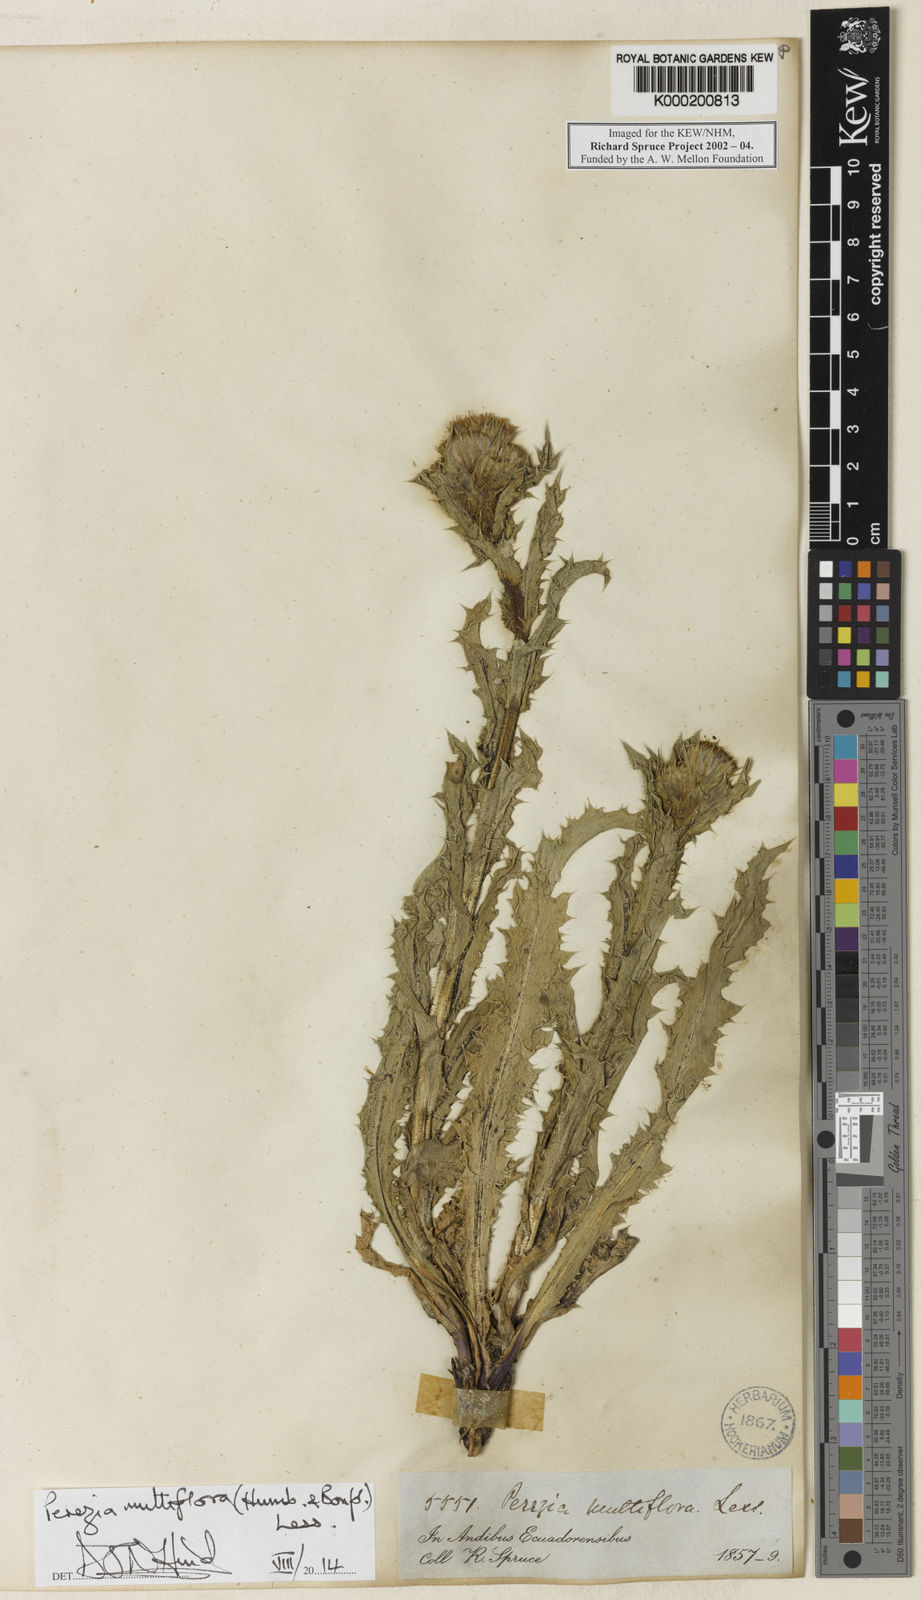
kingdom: Plantae
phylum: Tracheophyta
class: Magnoliopsida
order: Asterales
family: Asteraceae
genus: Perezia
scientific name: Perezia multiflora
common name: Perezia
